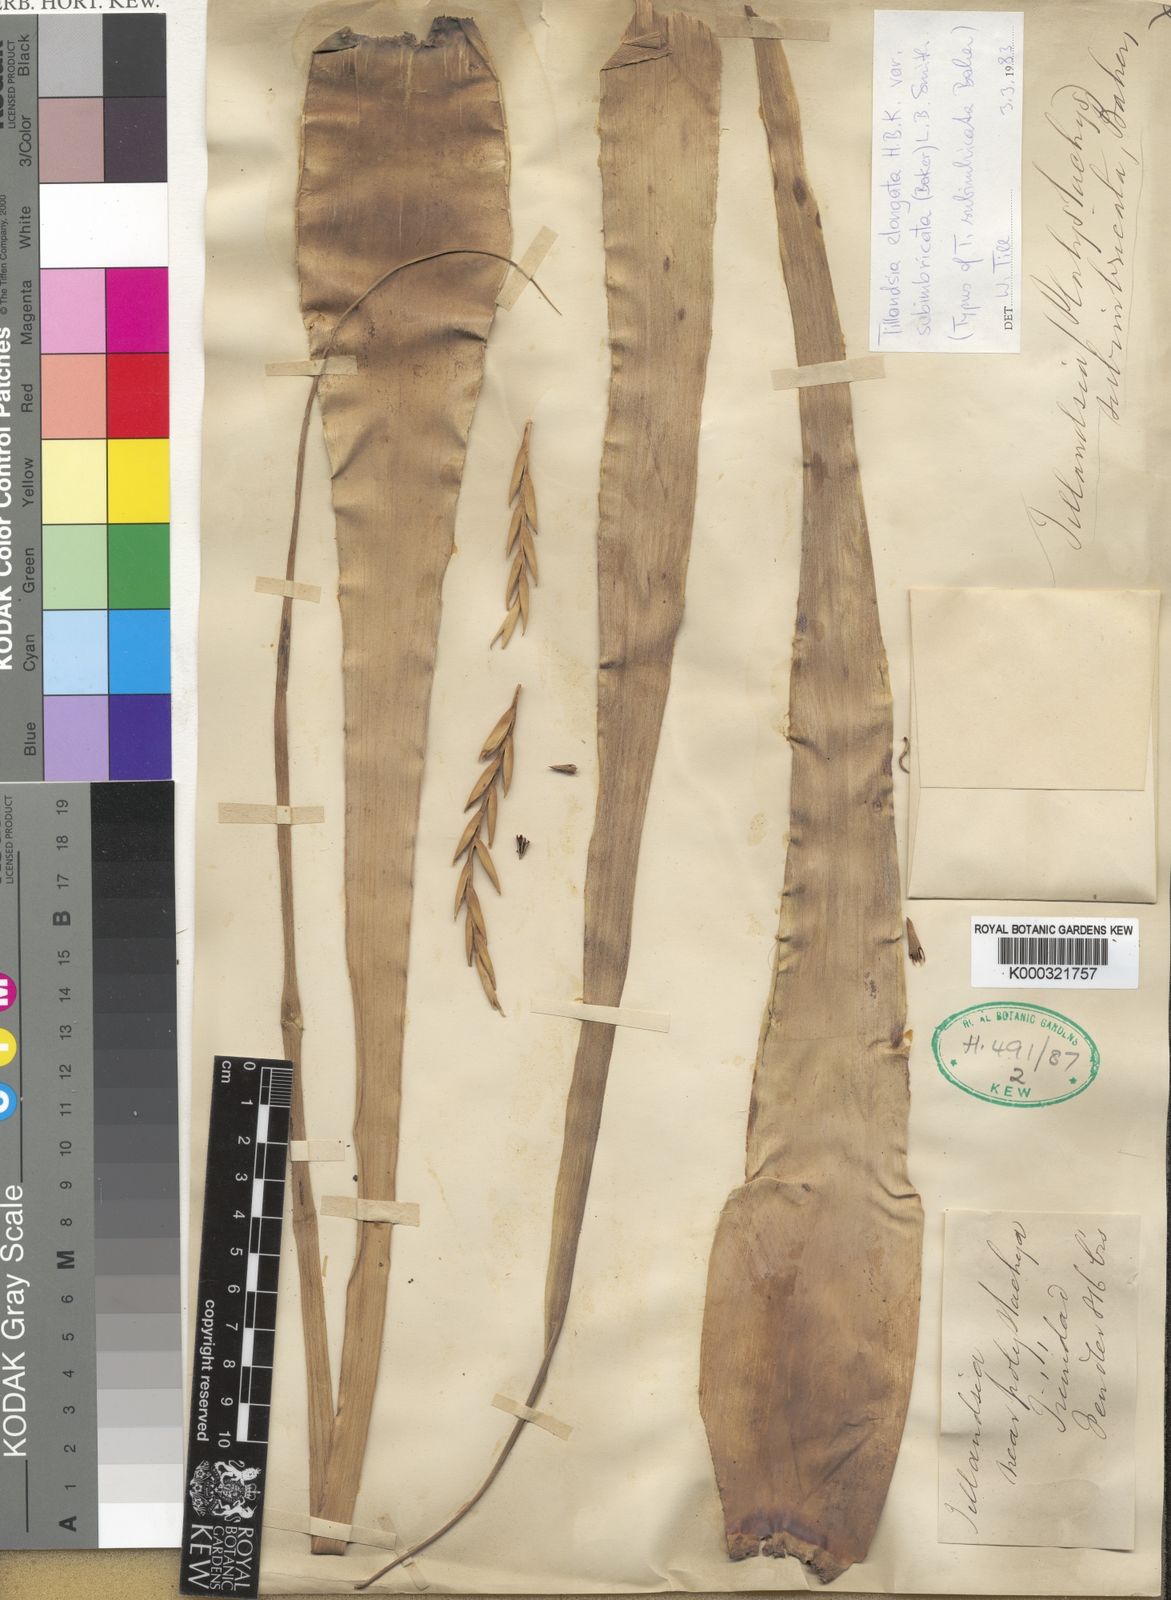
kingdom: Plantae
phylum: Tracheophyta
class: Liliopsida
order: Poales
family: Bromeliaceae
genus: Tillandsia
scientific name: Tillandsia elongata
